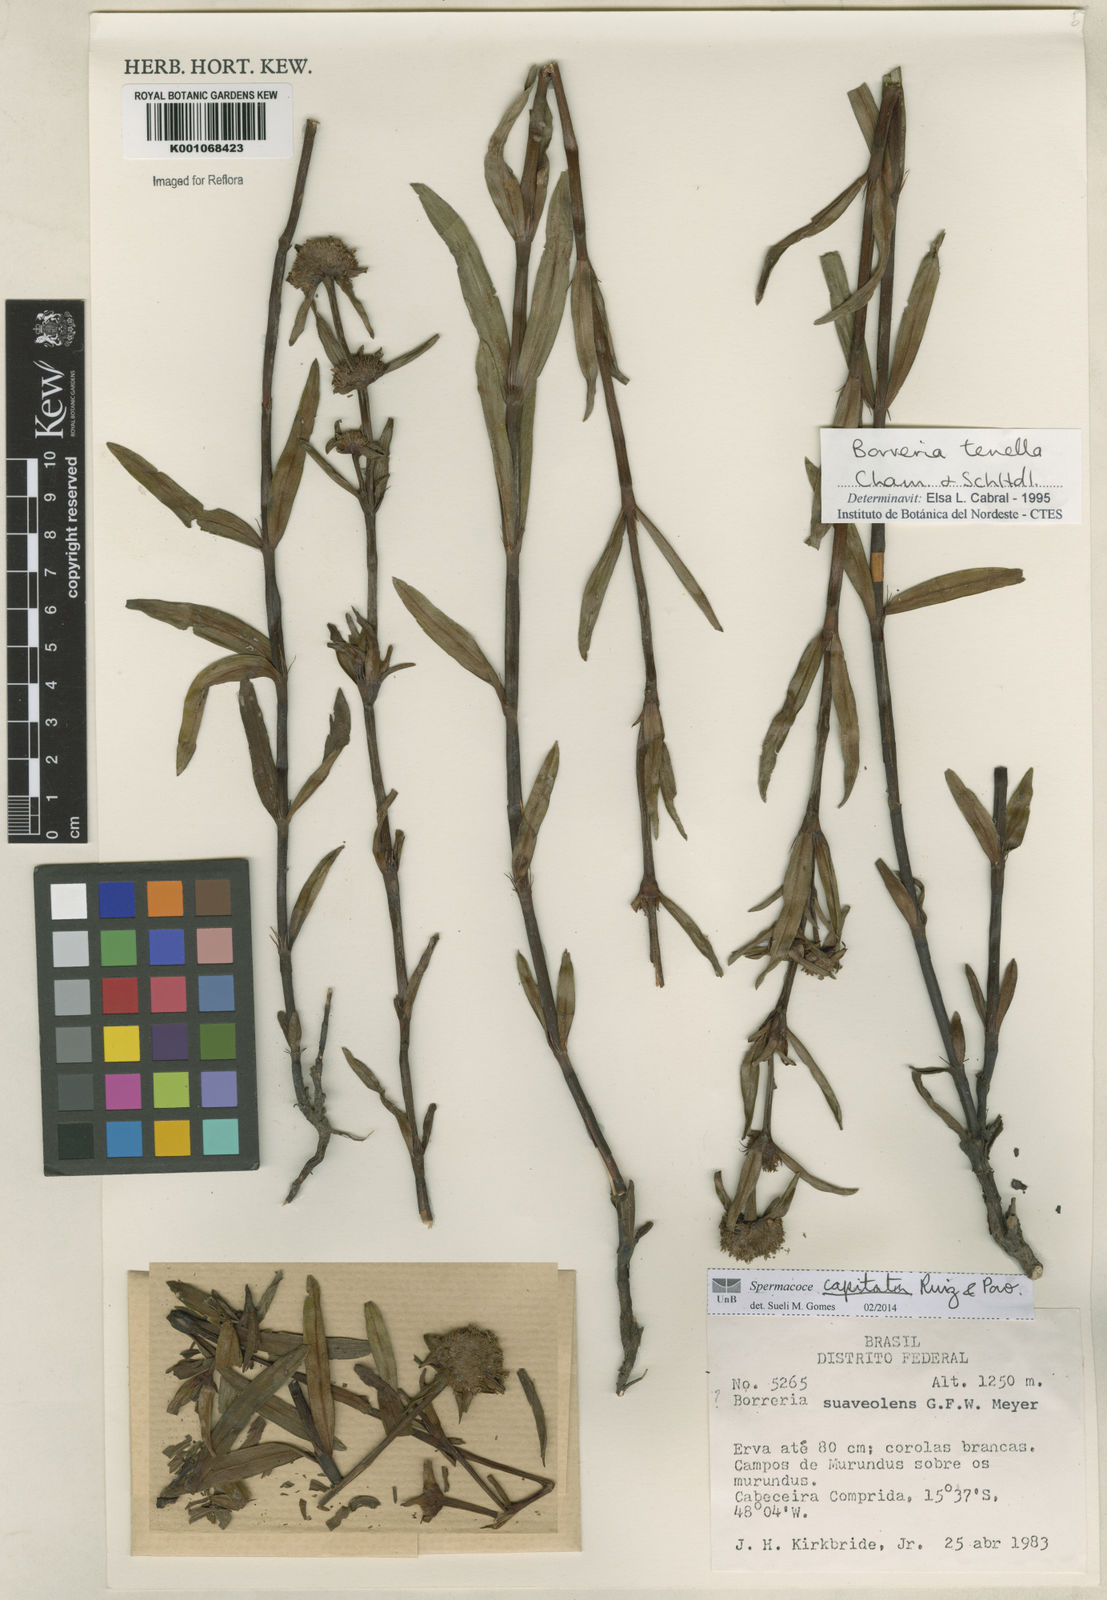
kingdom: Plantae
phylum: Tracheophyta
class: Magnoliopsida
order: Gentianales
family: Rubiaceae
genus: Spermacoce
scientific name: Spermacoce capitata
